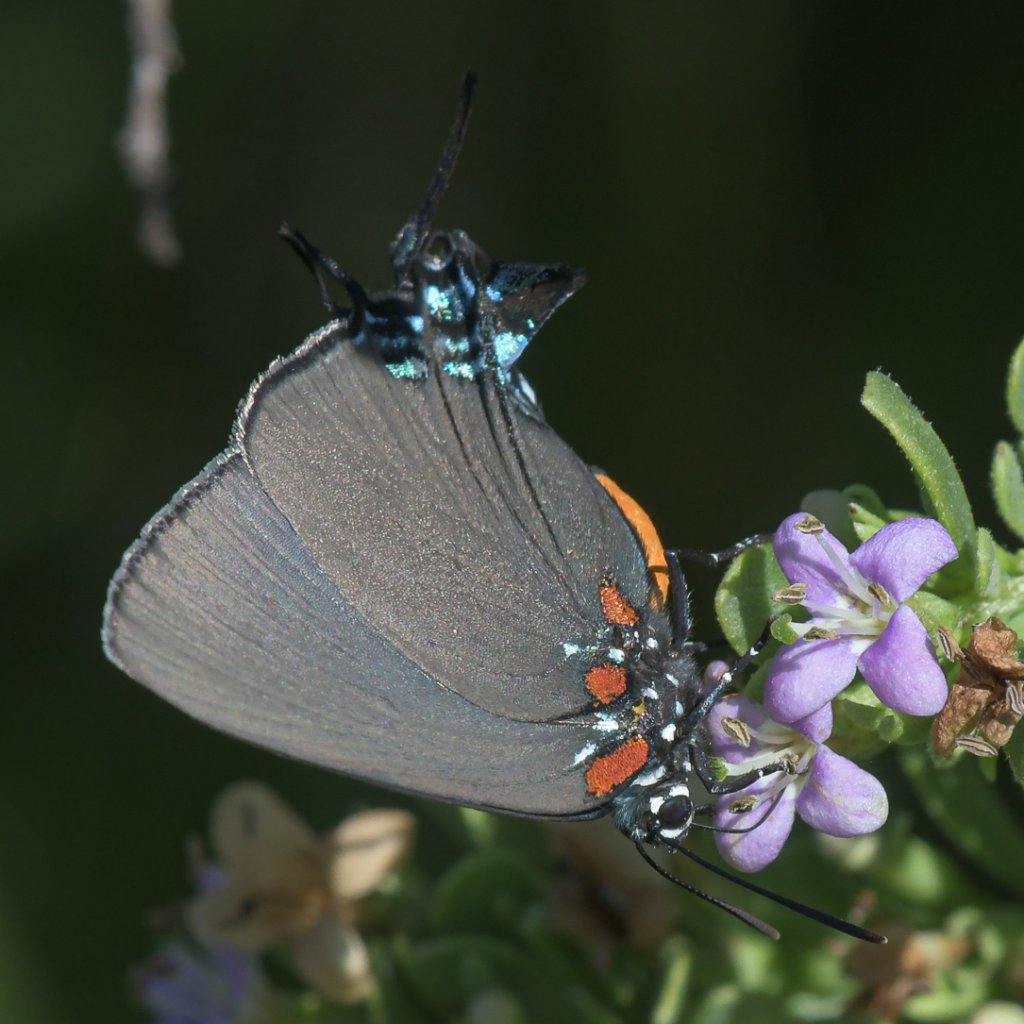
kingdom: Animalia
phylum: Arthropoda
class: Insecta
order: Lepidoptera
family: Lycaenidae
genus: Atlides
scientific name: Atlides halesus
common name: Great Purple Hairstreak
